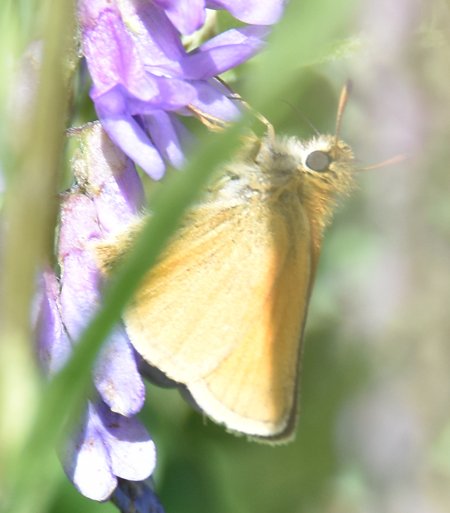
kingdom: Animalia
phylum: Arthropoda
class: Insecta
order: Lepidoptera
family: Hesperiidae
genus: Thymelicus
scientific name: Thymelicus lineola
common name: European Skipper
